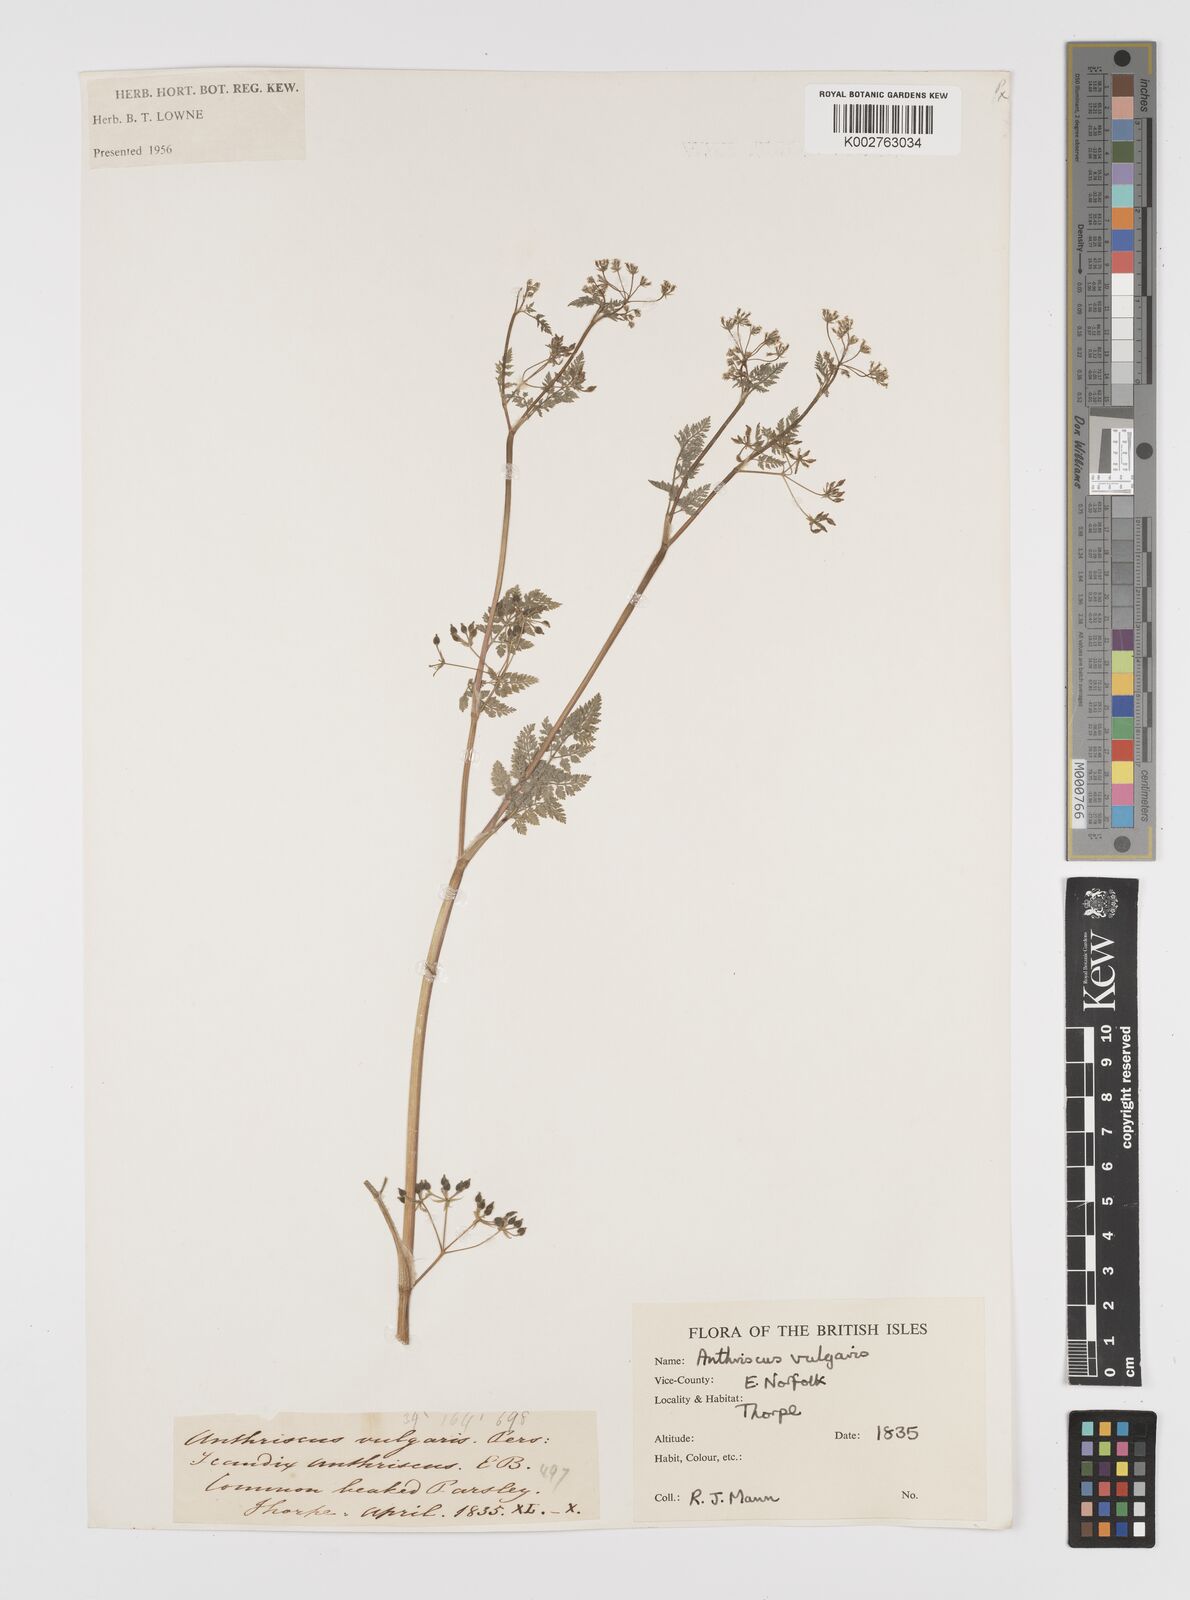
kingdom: Plantae
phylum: Tracheophyta
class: Magnoliopsida
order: Apiales
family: Apiaceae
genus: Anthriscus
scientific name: Anthriscus caucalis
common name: Bur chervil
